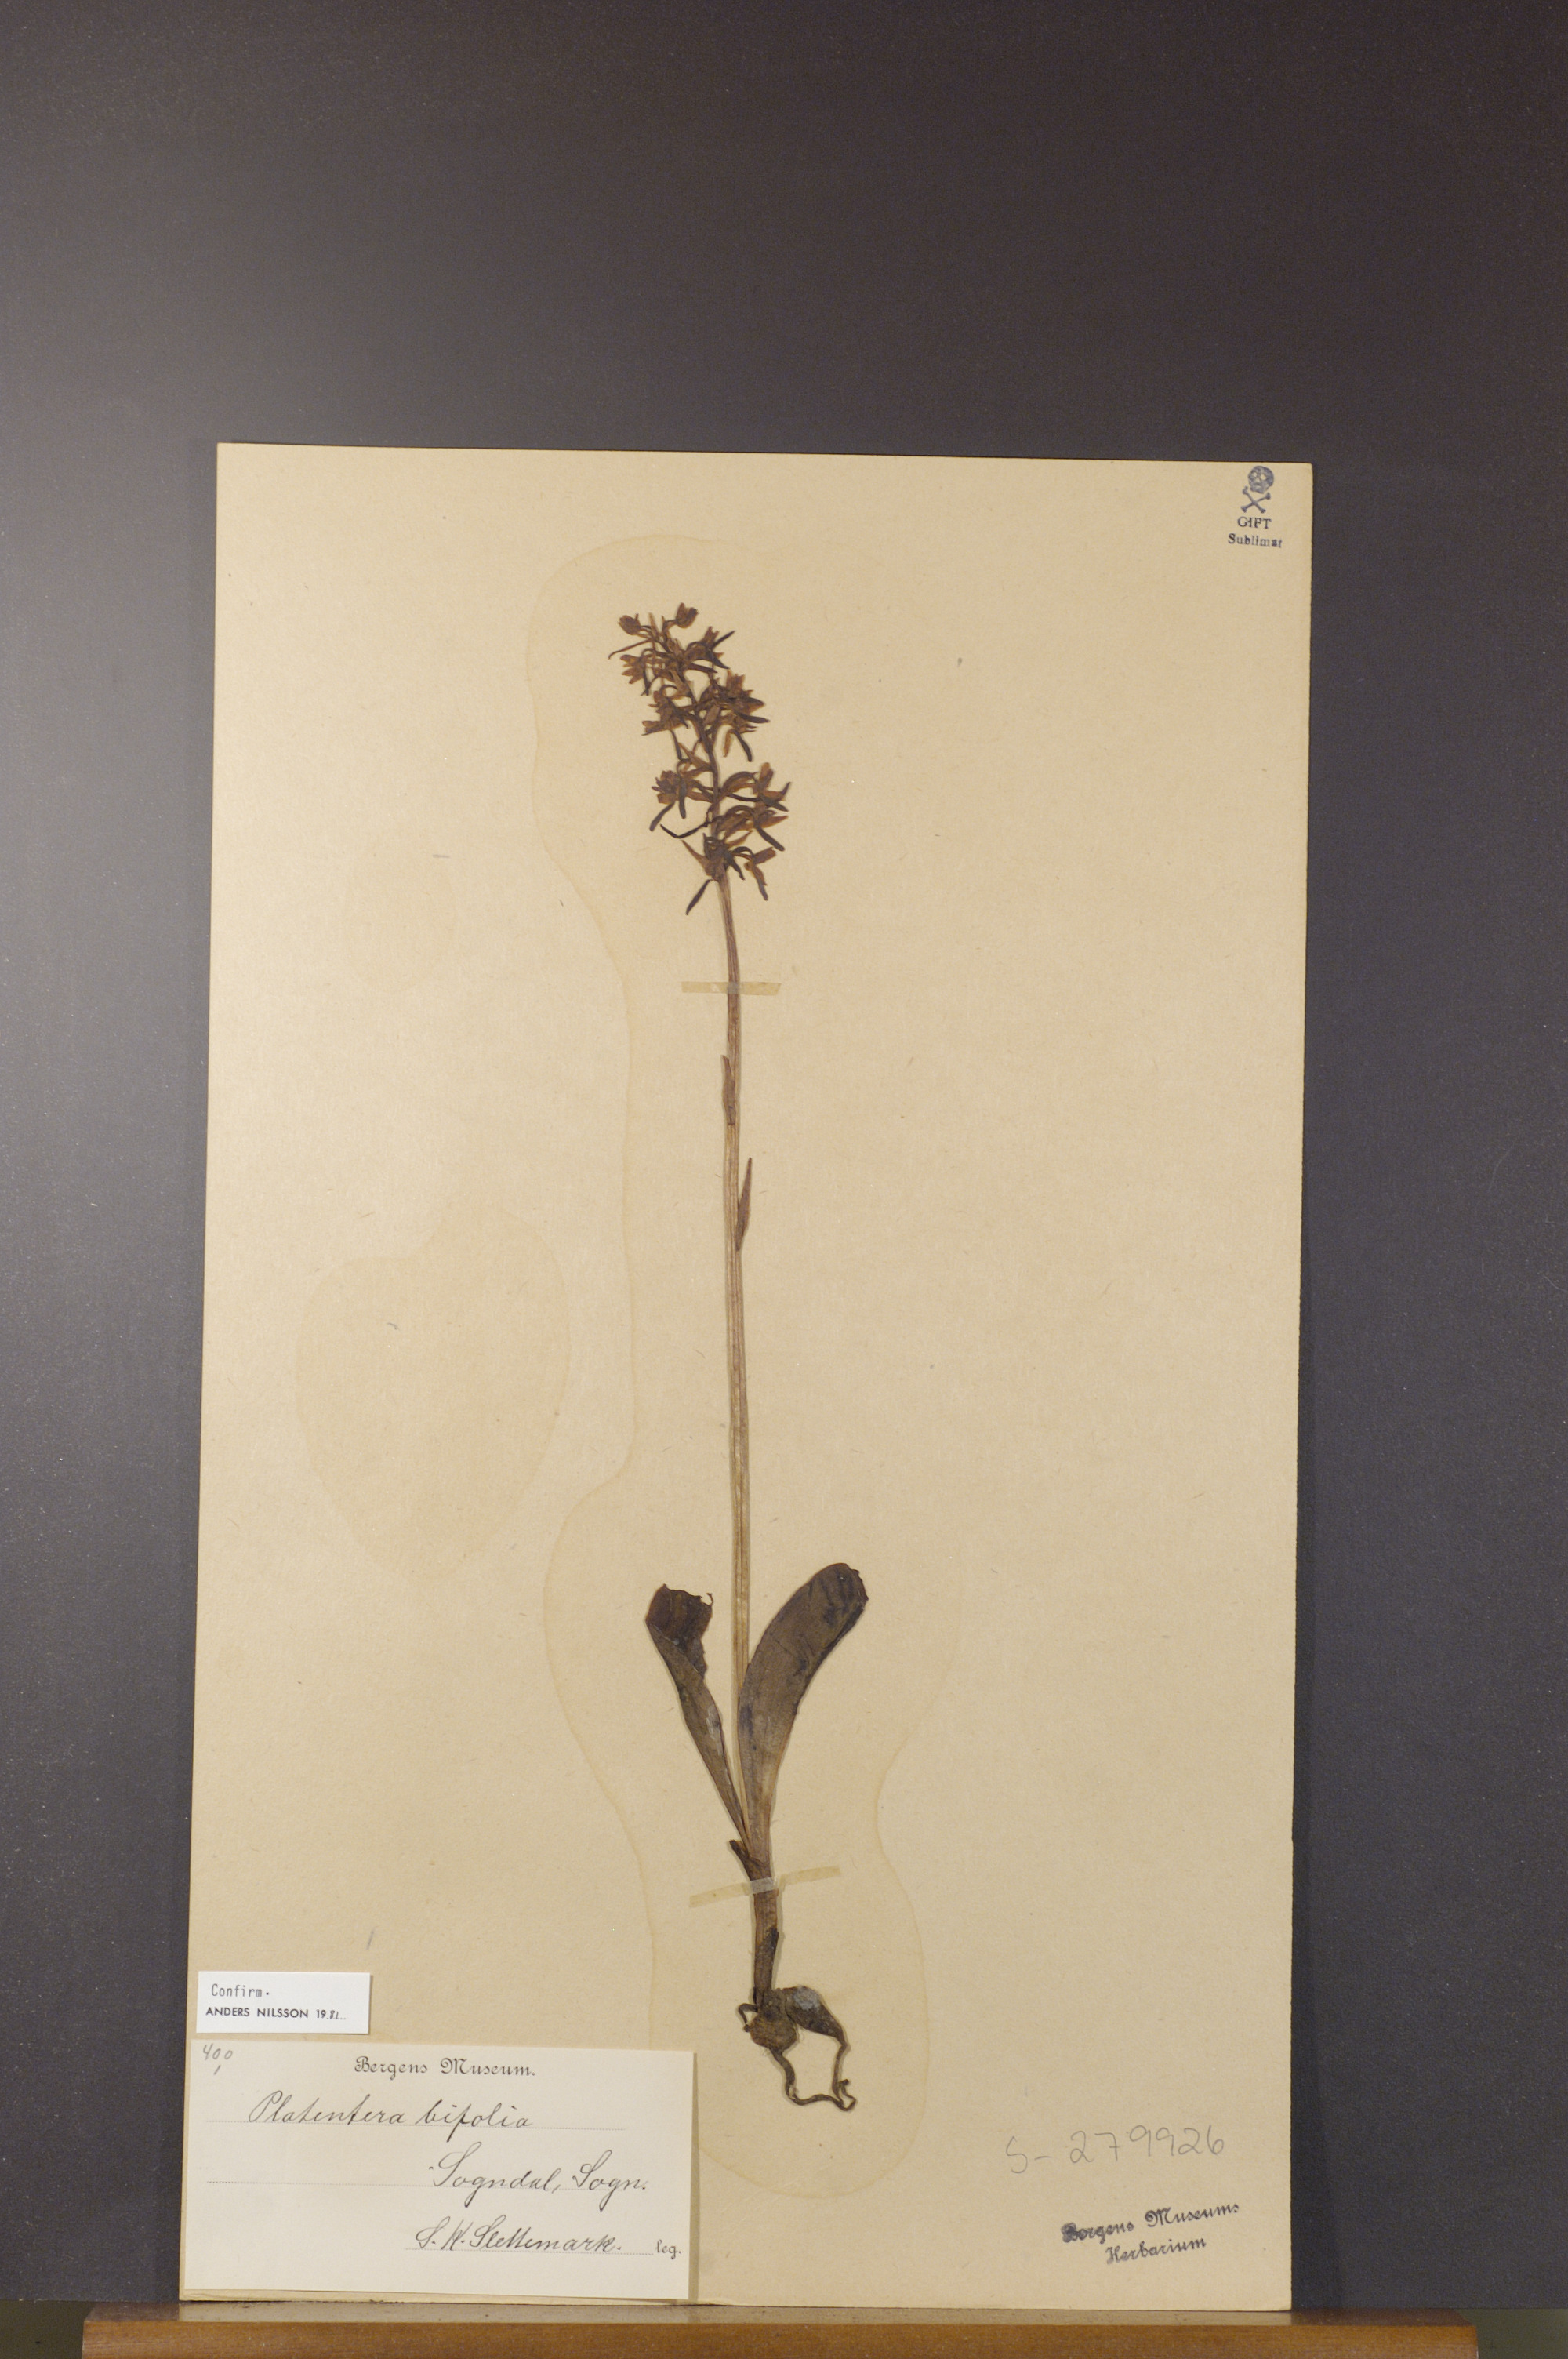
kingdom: Plantae
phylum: Tracheophyta
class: Liliopsida
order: Asparagales
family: Orchidaceae
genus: Platanthera
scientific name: Platanthera bifolia
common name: Lesser butterfly-orchid
